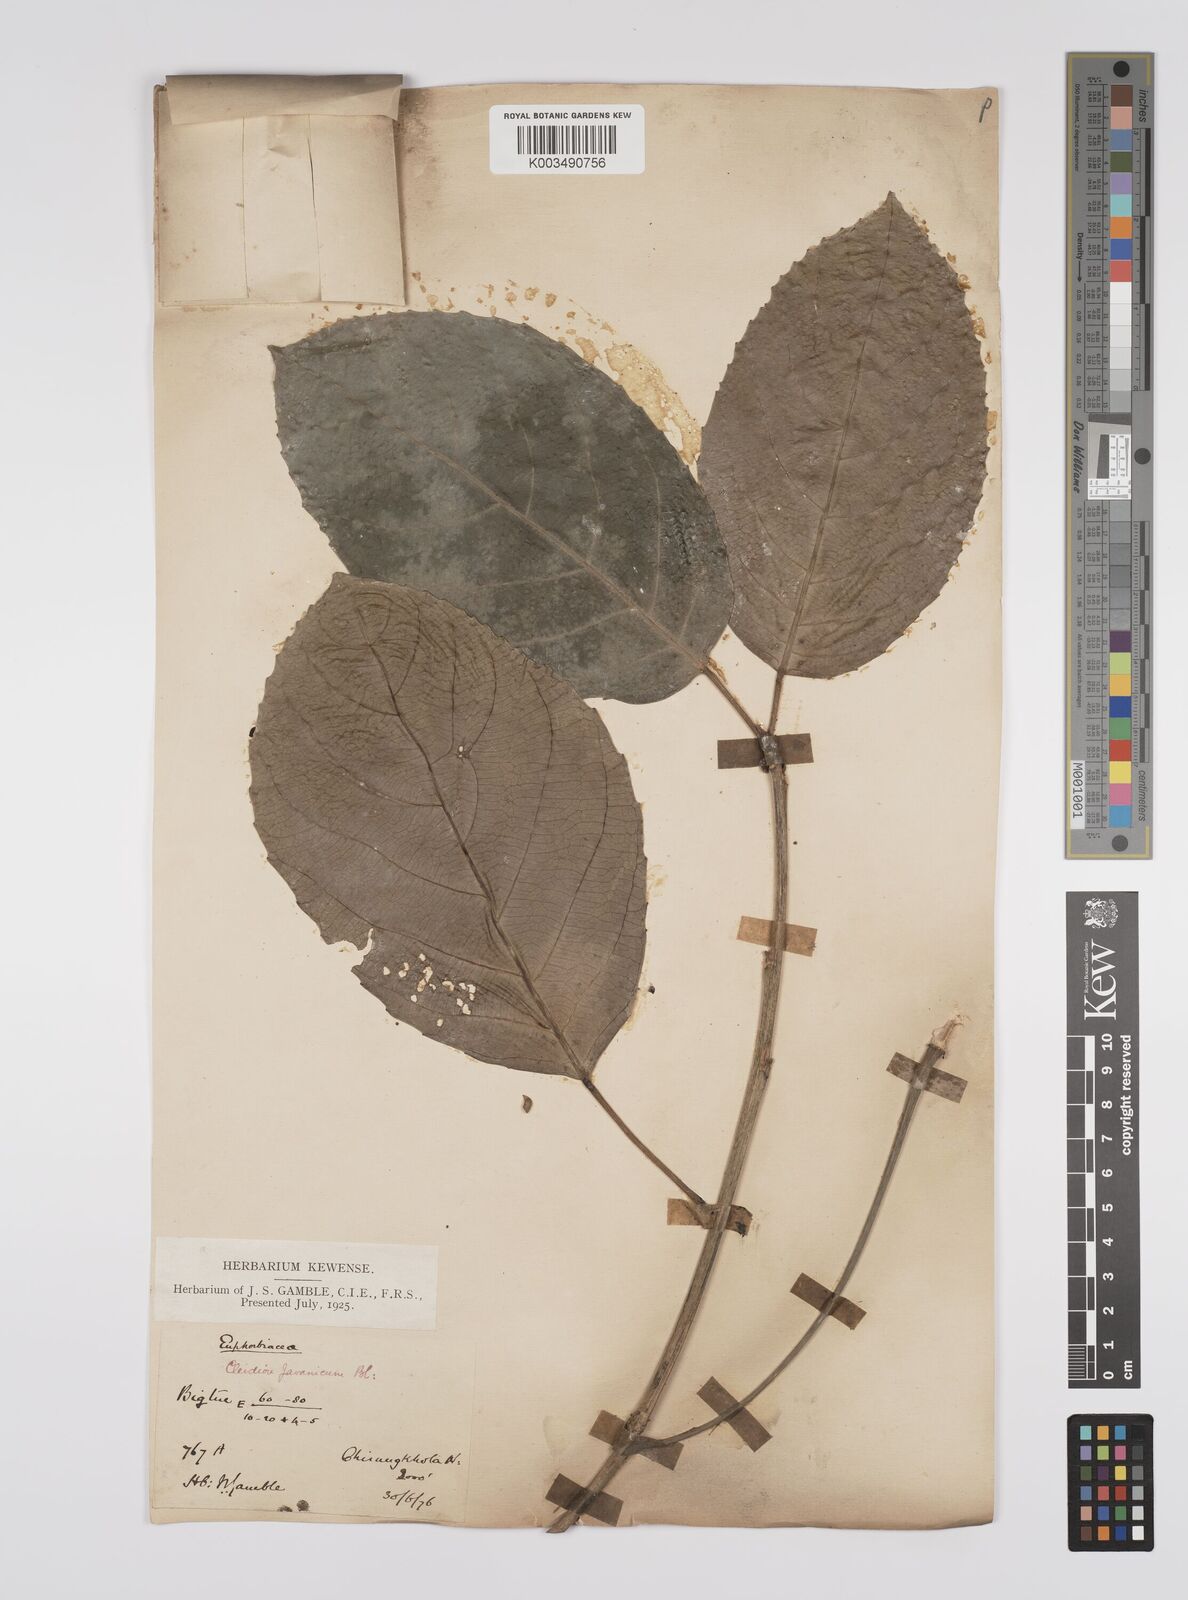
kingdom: Plantae
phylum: Tracheophyta
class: Magnoliopsida
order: Malpighiales
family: Euphorbiaceae
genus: Acalypha
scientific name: Acalypha spiciflora
